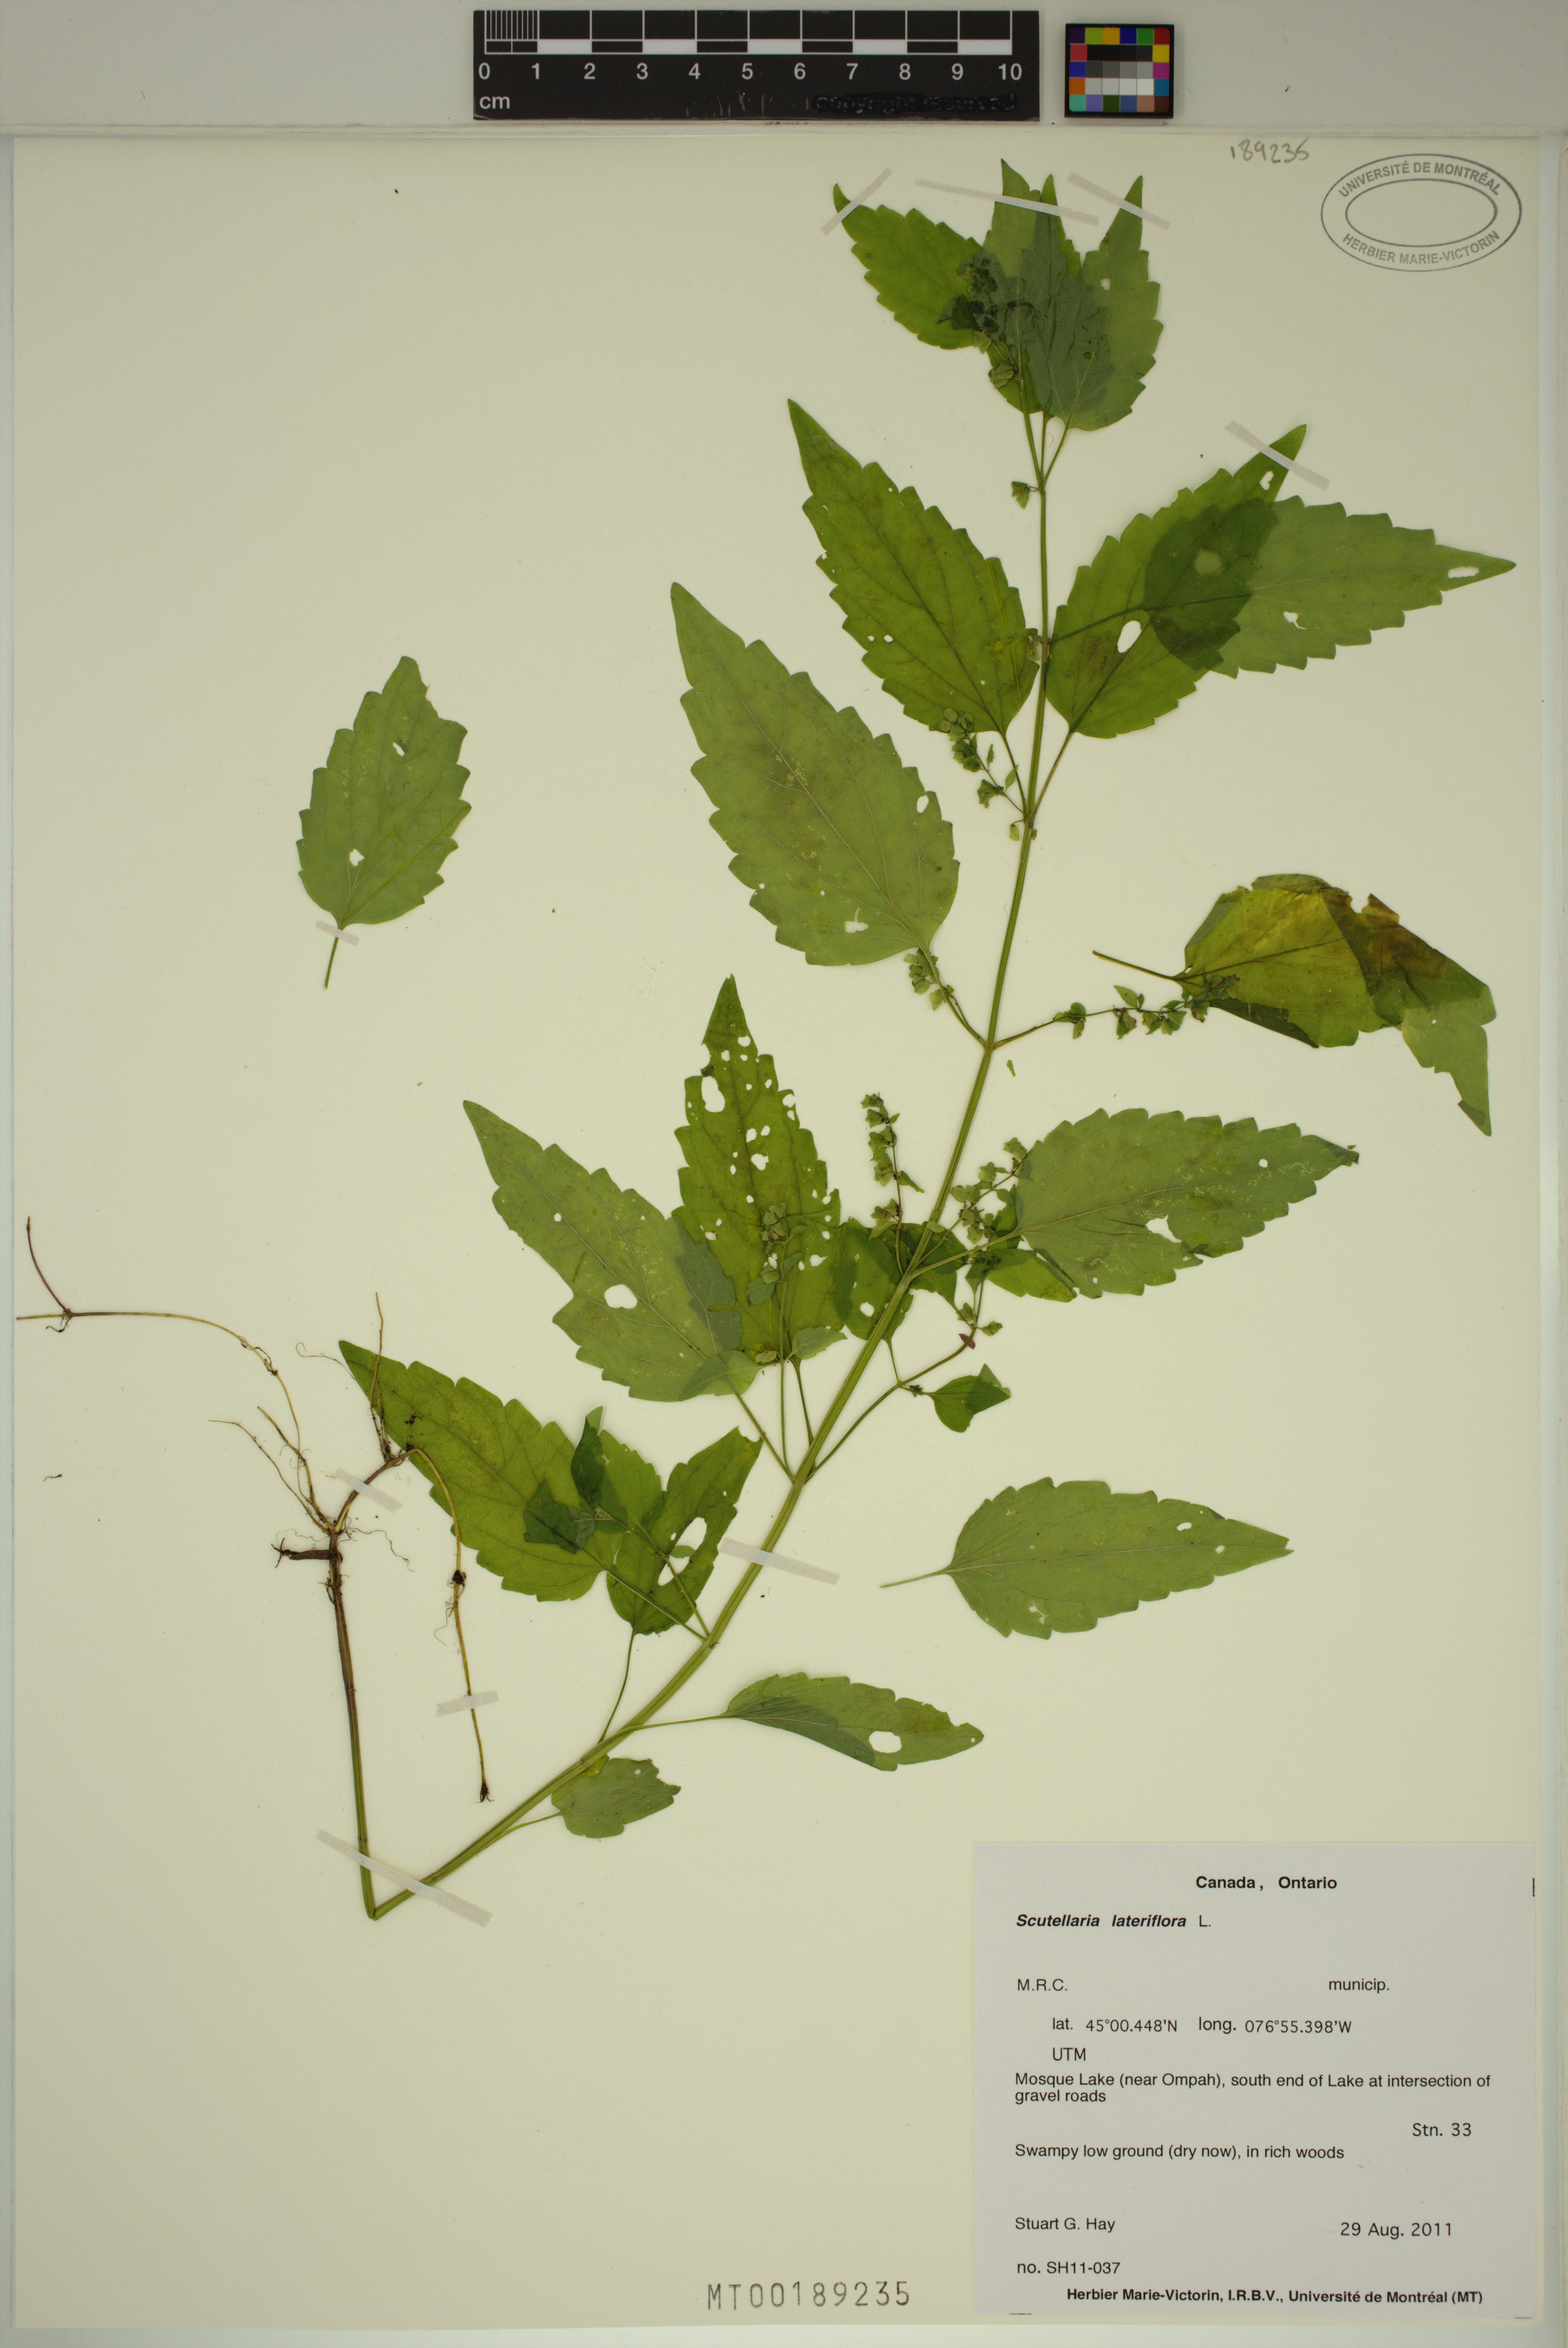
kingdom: Plantae
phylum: Tracheophyta
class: Magnoliopsida
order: Lamiales
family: Lamiaceae
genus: Scutellaria
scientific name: Scutellaria lateriflora
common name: Blue skullcap
